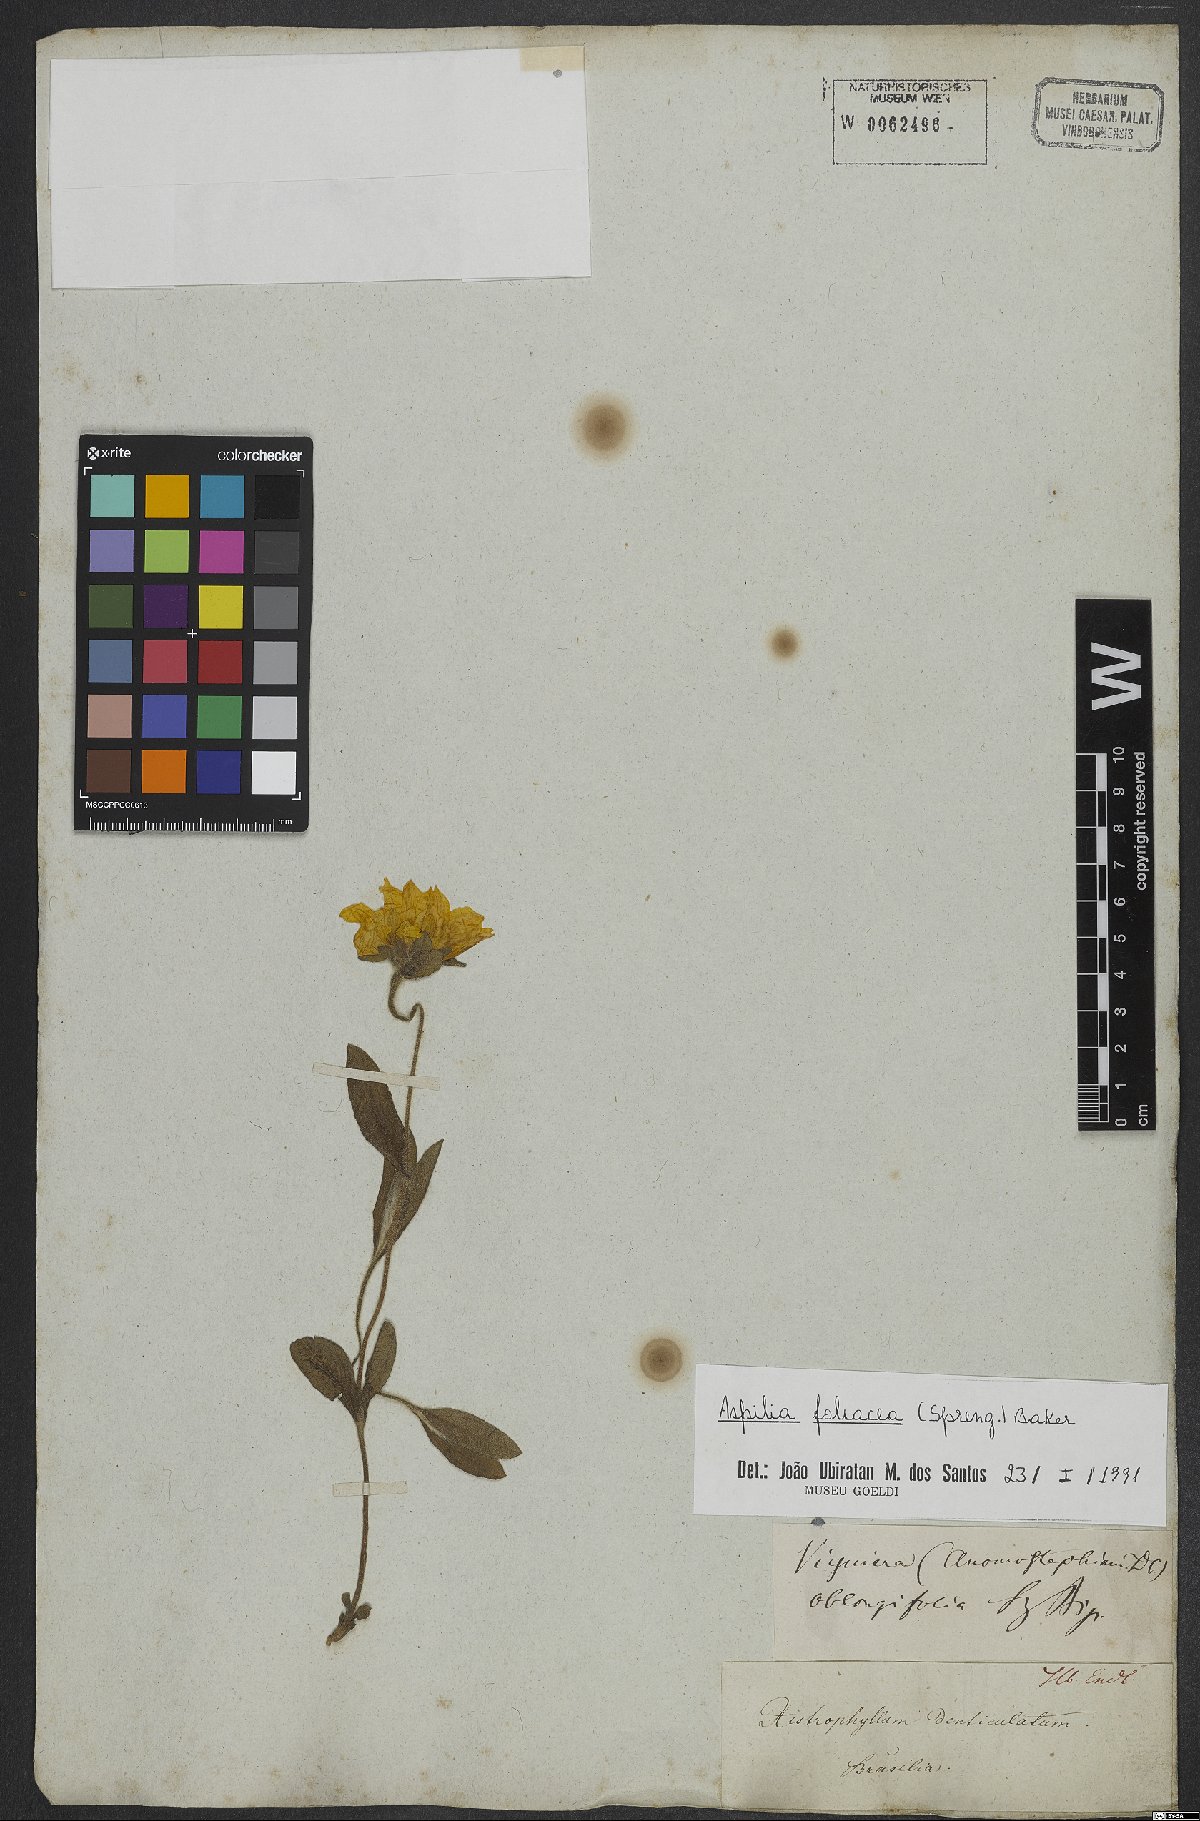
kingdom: Plantae
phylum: Tracheophyta
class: Magnoliopsida
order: Asterales
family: Asteraceae
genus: Aspilia
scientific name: Aspilia foliosa
